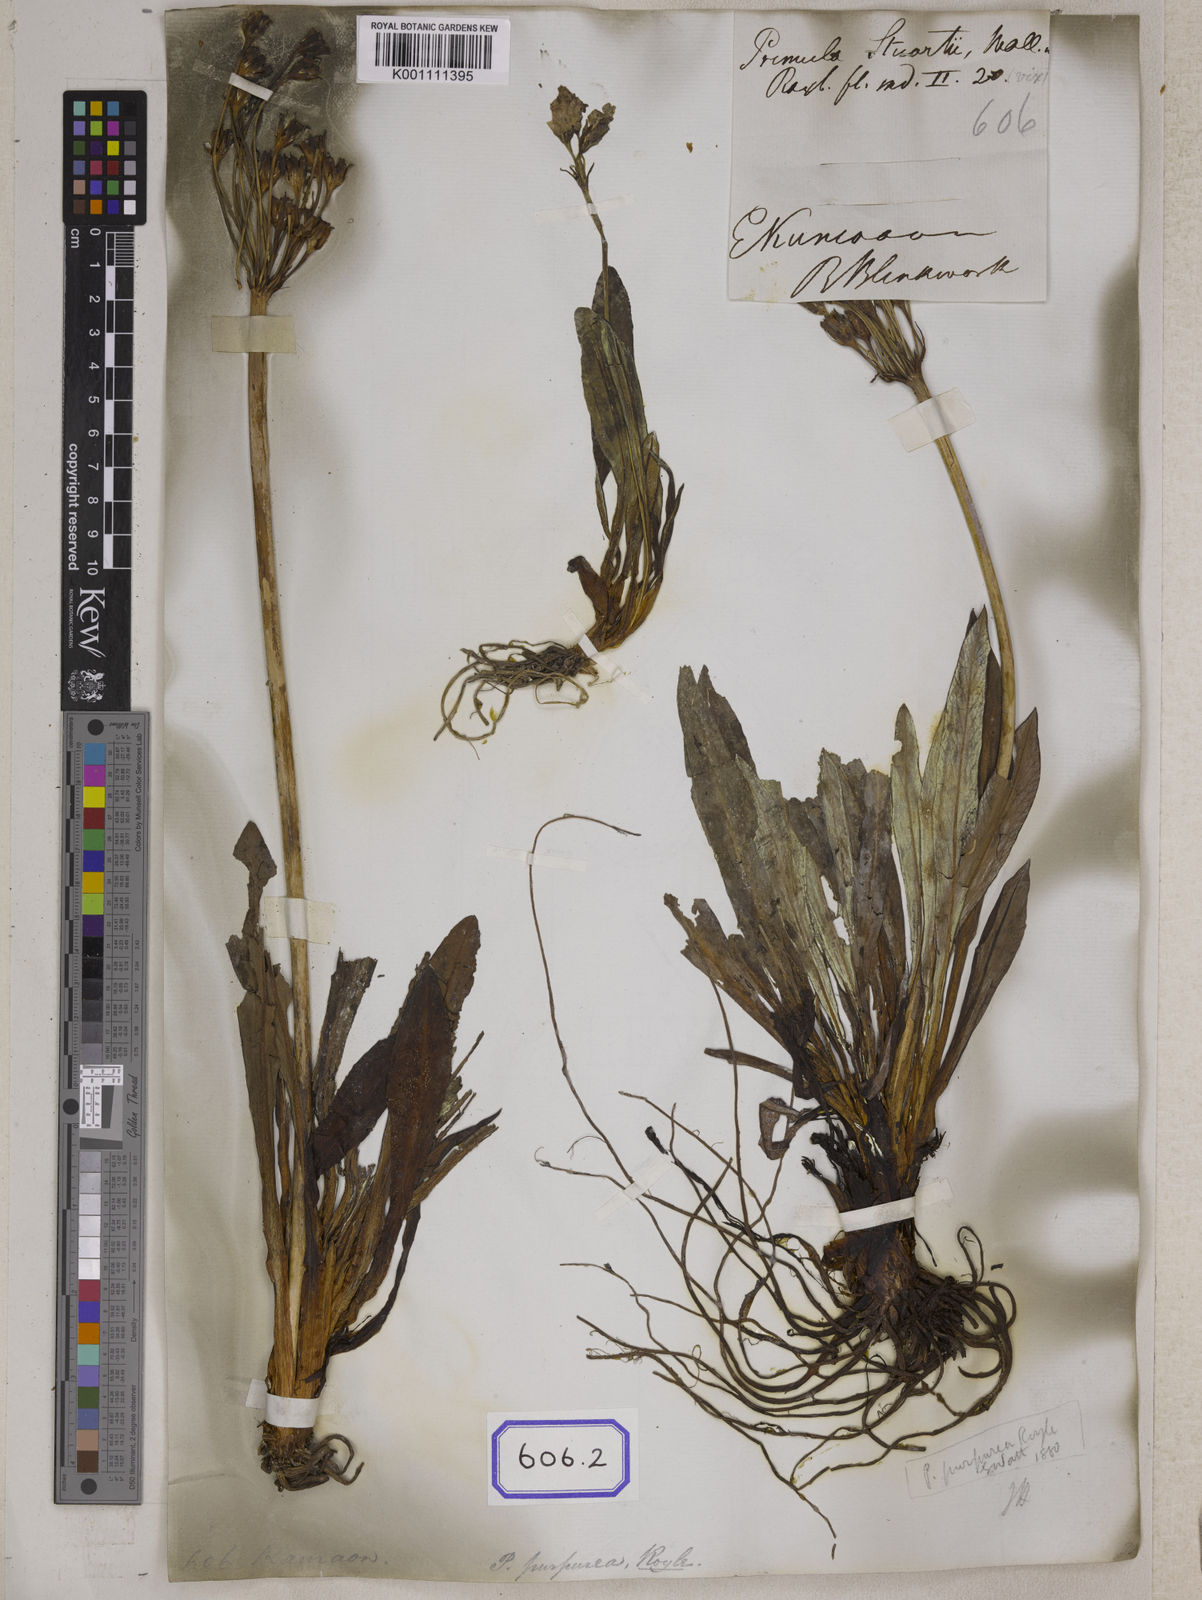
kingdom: Plantae
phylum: Tracheophyta
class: Magnoliopsida
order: Ericales
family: Primulaceae
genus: Primula
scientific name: Primula stuartii
